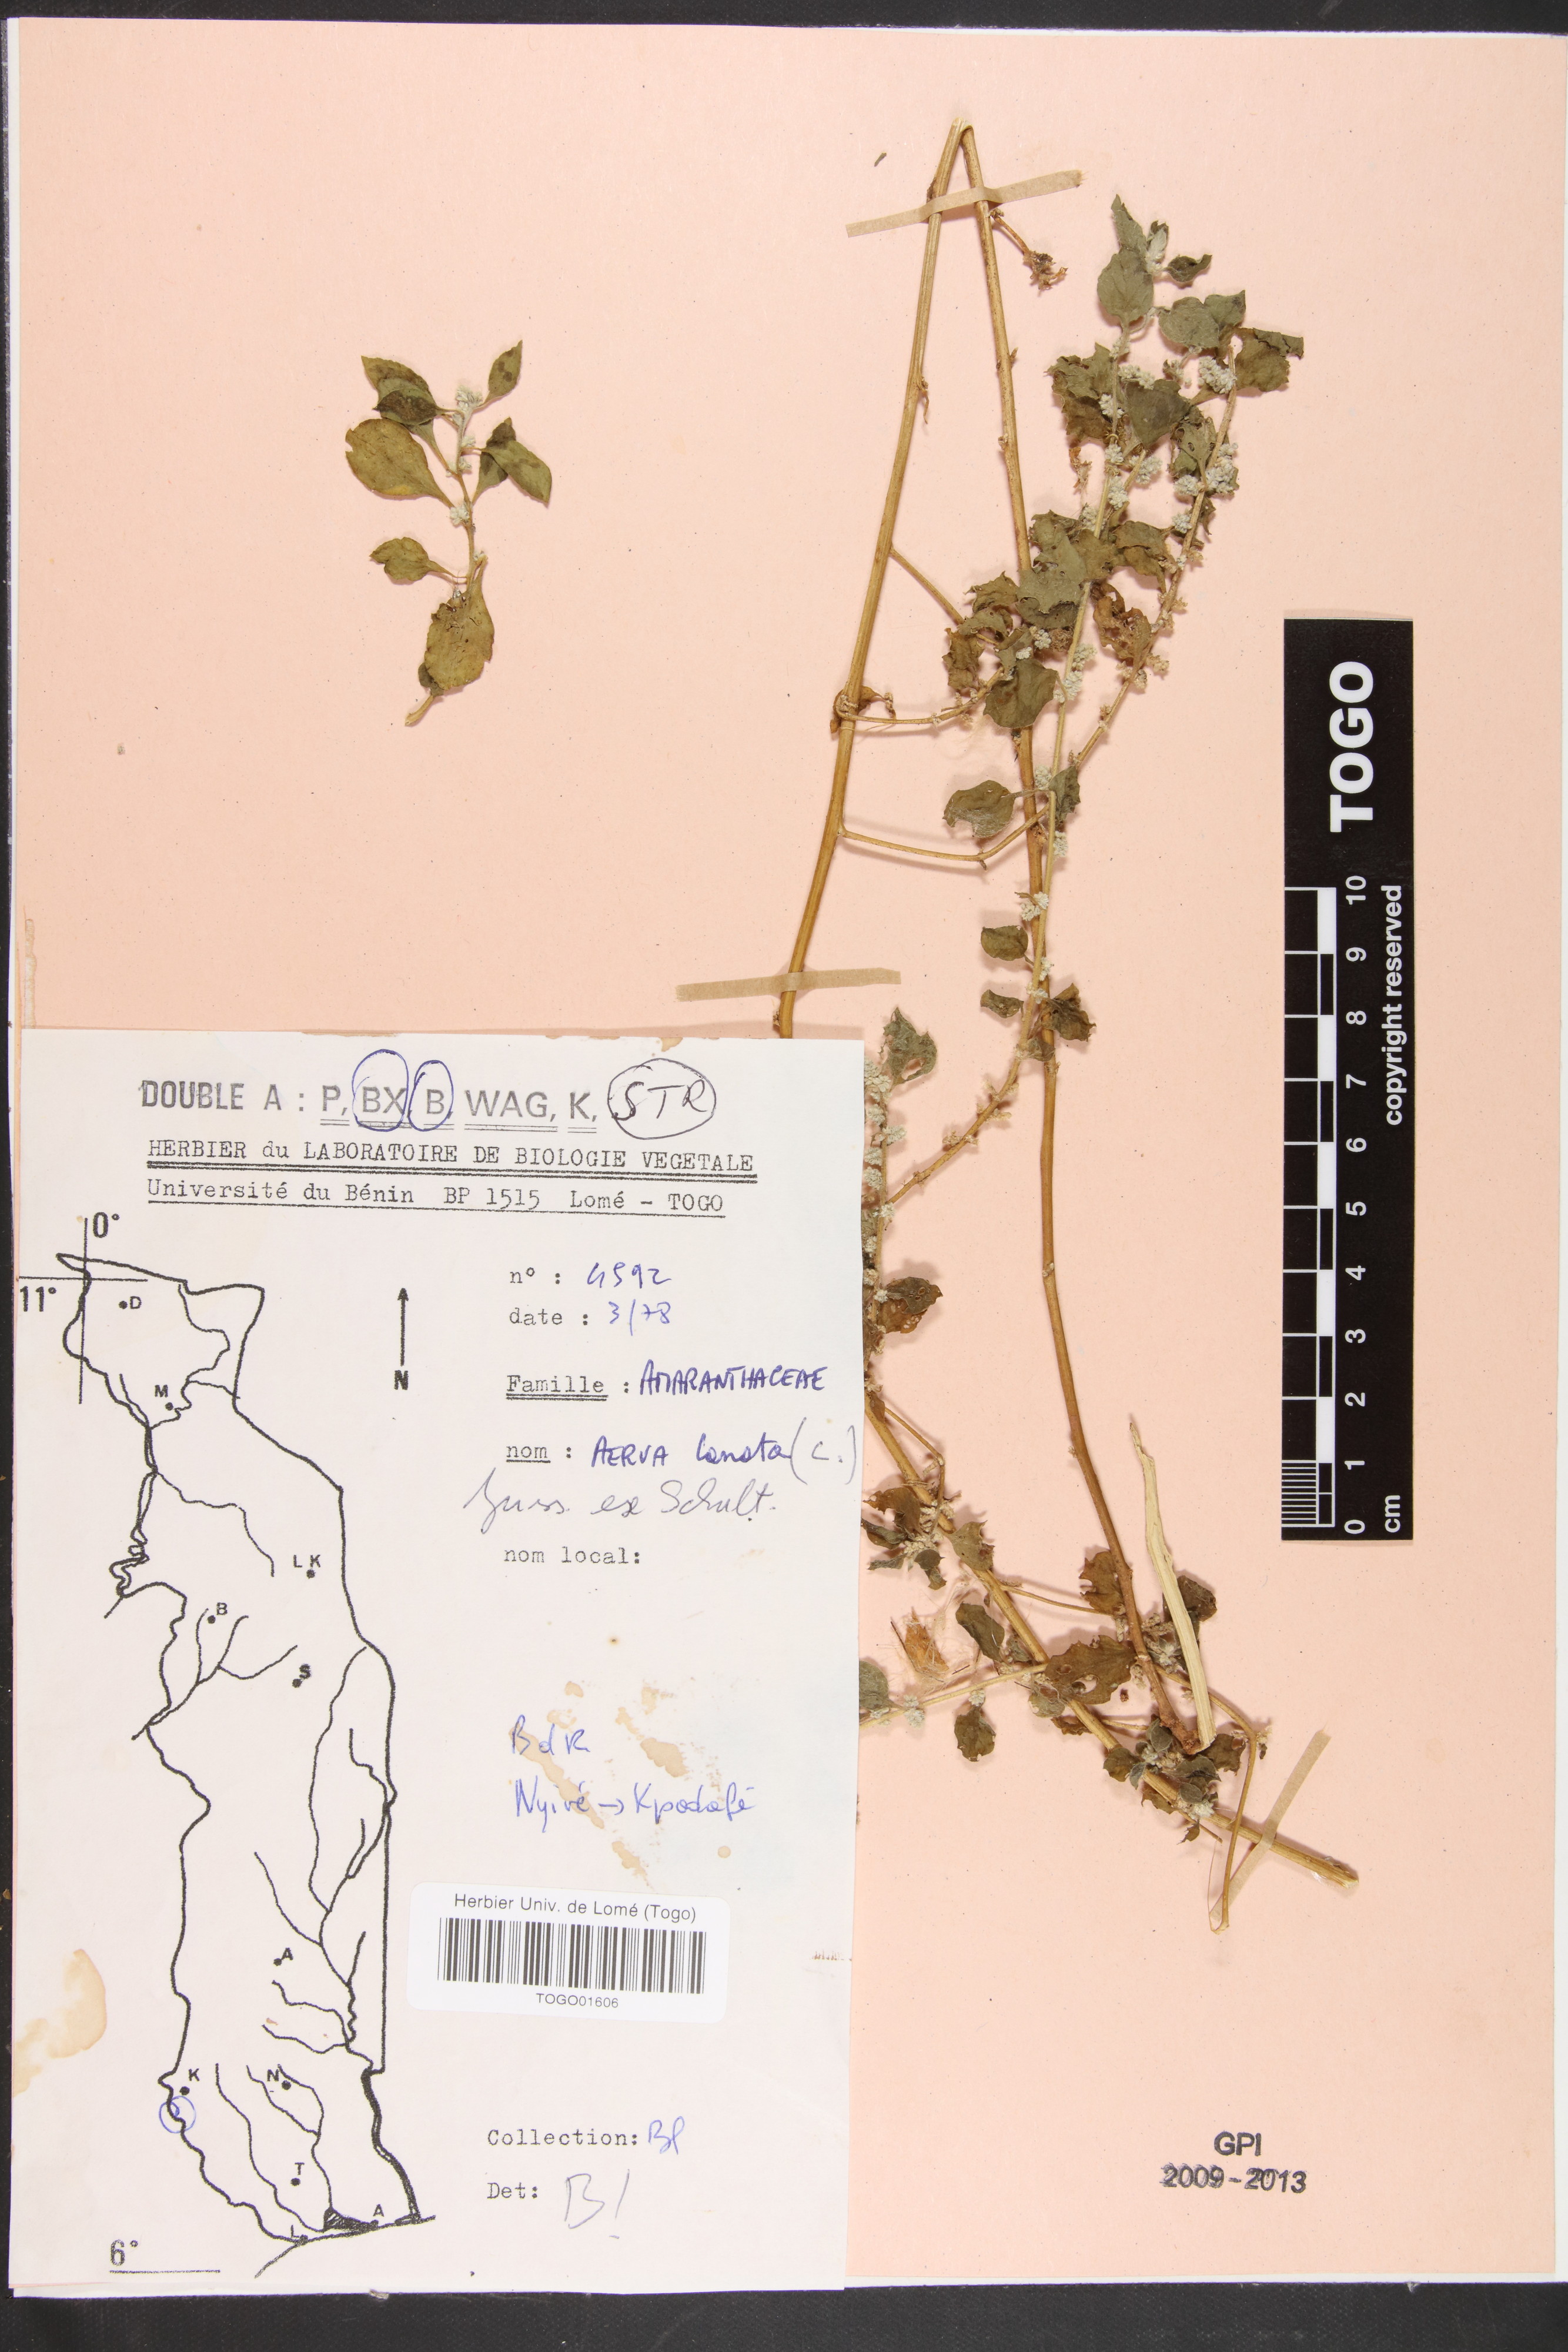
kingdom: Plantae
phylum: Tracheophyta
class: Magnoliopsida
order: Caryophyllales
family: Amaranthaceae
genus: Ouret
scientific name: Ouret lanata
